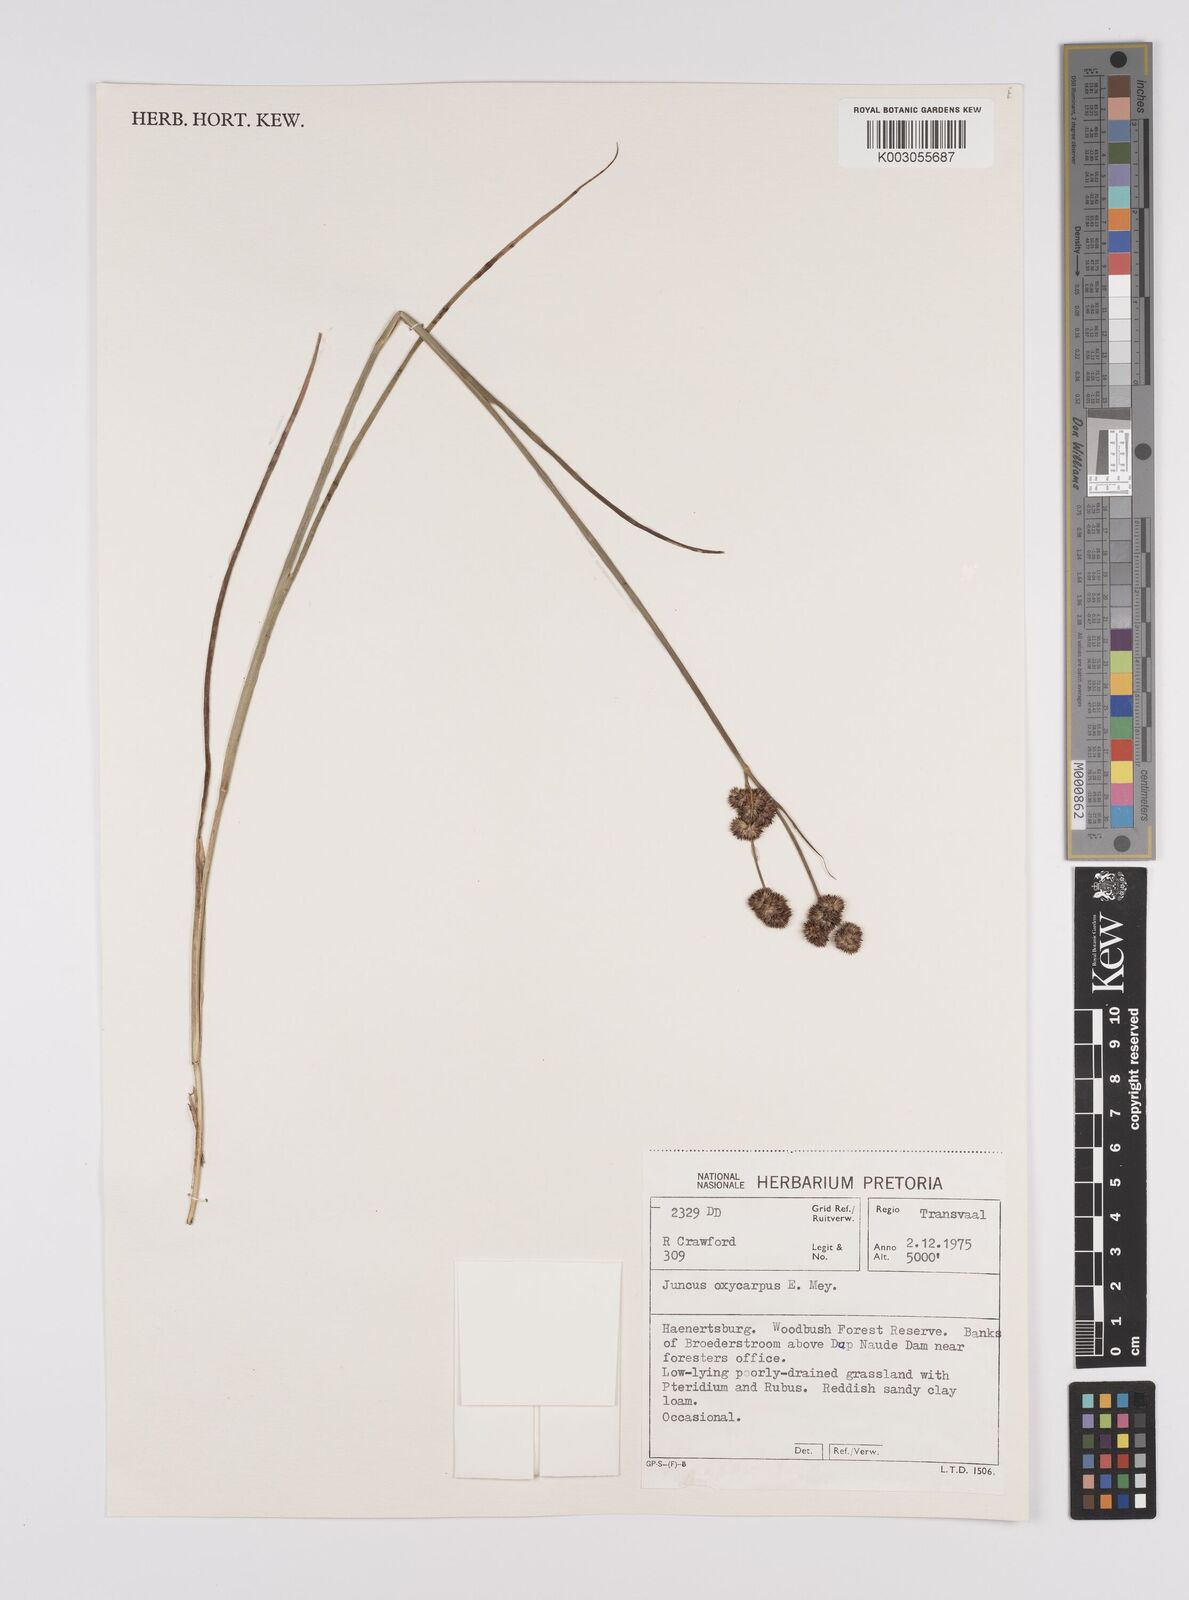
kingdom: Plantae
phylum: Tracheophyta
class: Liliopsida
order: Poales
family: Juncaceae
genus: Juncus
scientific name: Juncus oxycarpus
